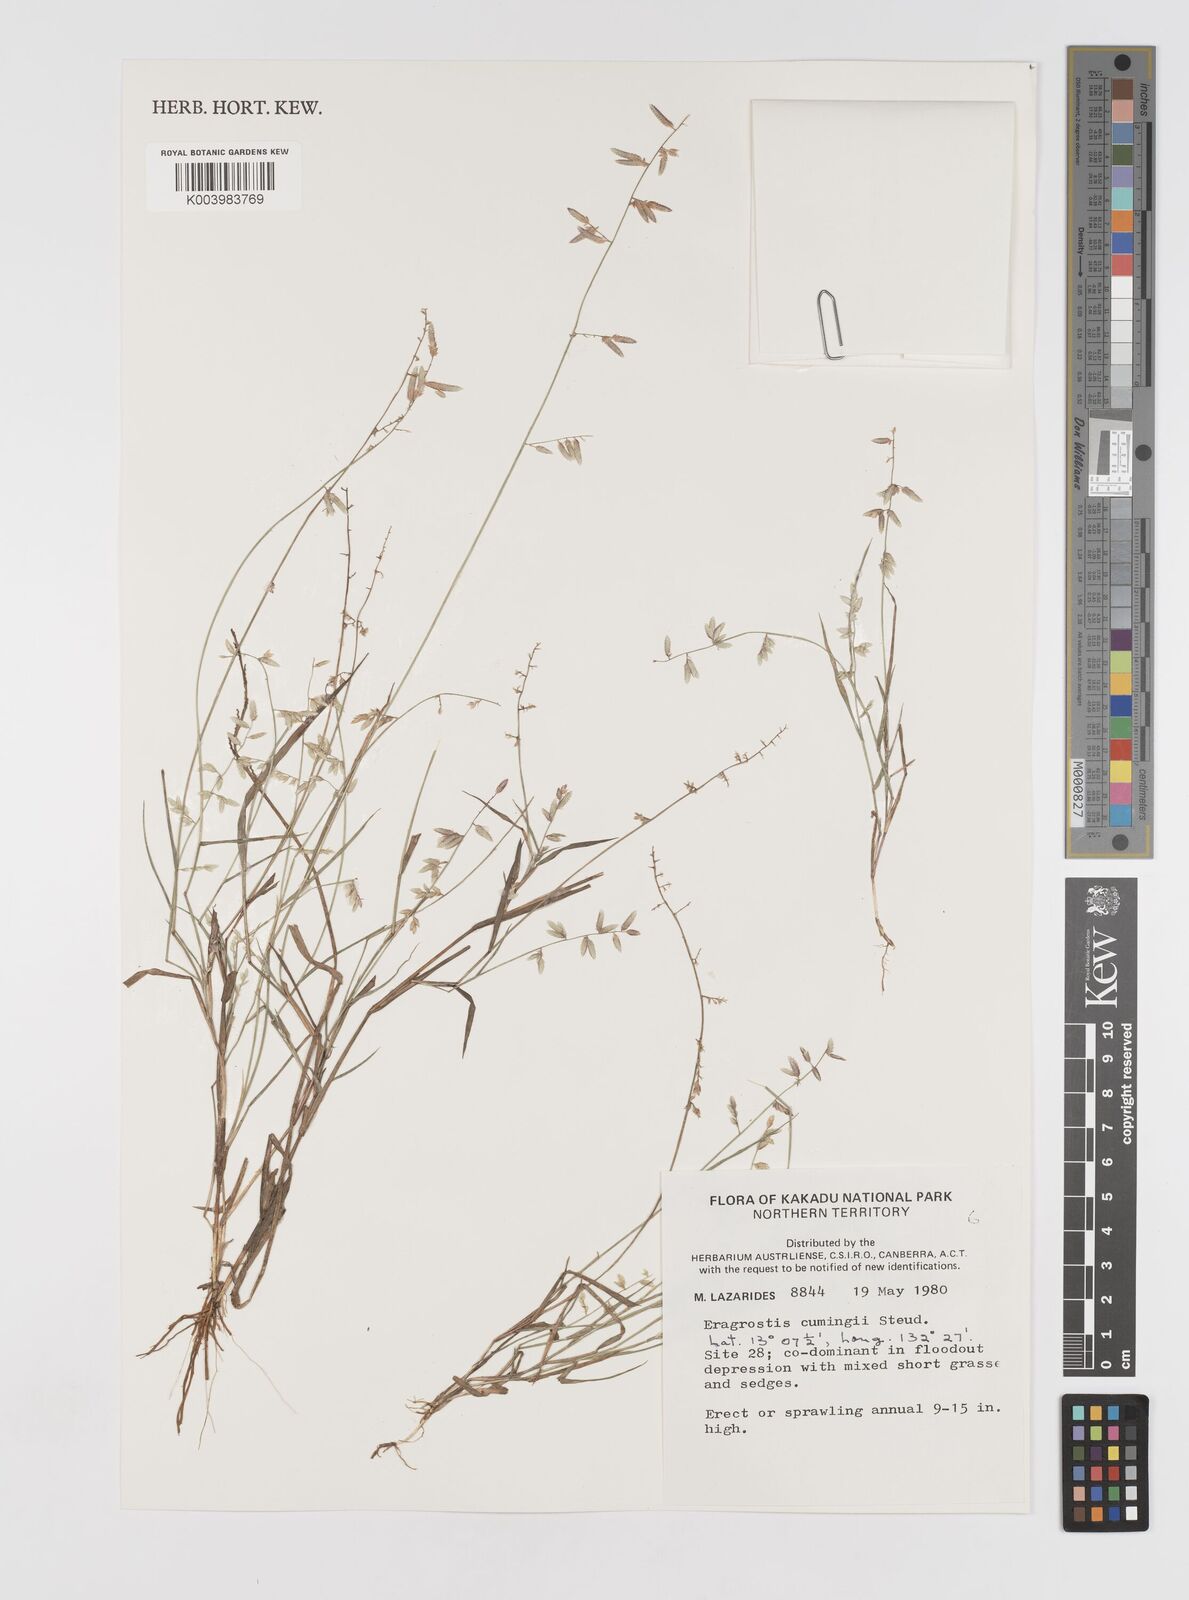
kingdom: Plantae
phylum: Tracheophyta
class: Liliopsida
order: Poales
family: Poaceae
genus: Eragrostis
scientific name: Eragrostis cumingii
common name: Cuming's lovegrass
